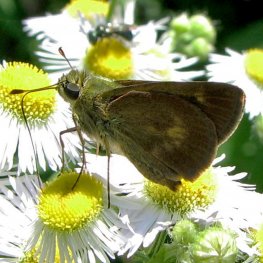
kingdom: Animalia
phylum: Arthropoda
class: Insecta
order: Lepidoptera
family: Hesperiidae
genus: Polites
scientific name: Polites egeremet
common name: Northern Broken-Dash
